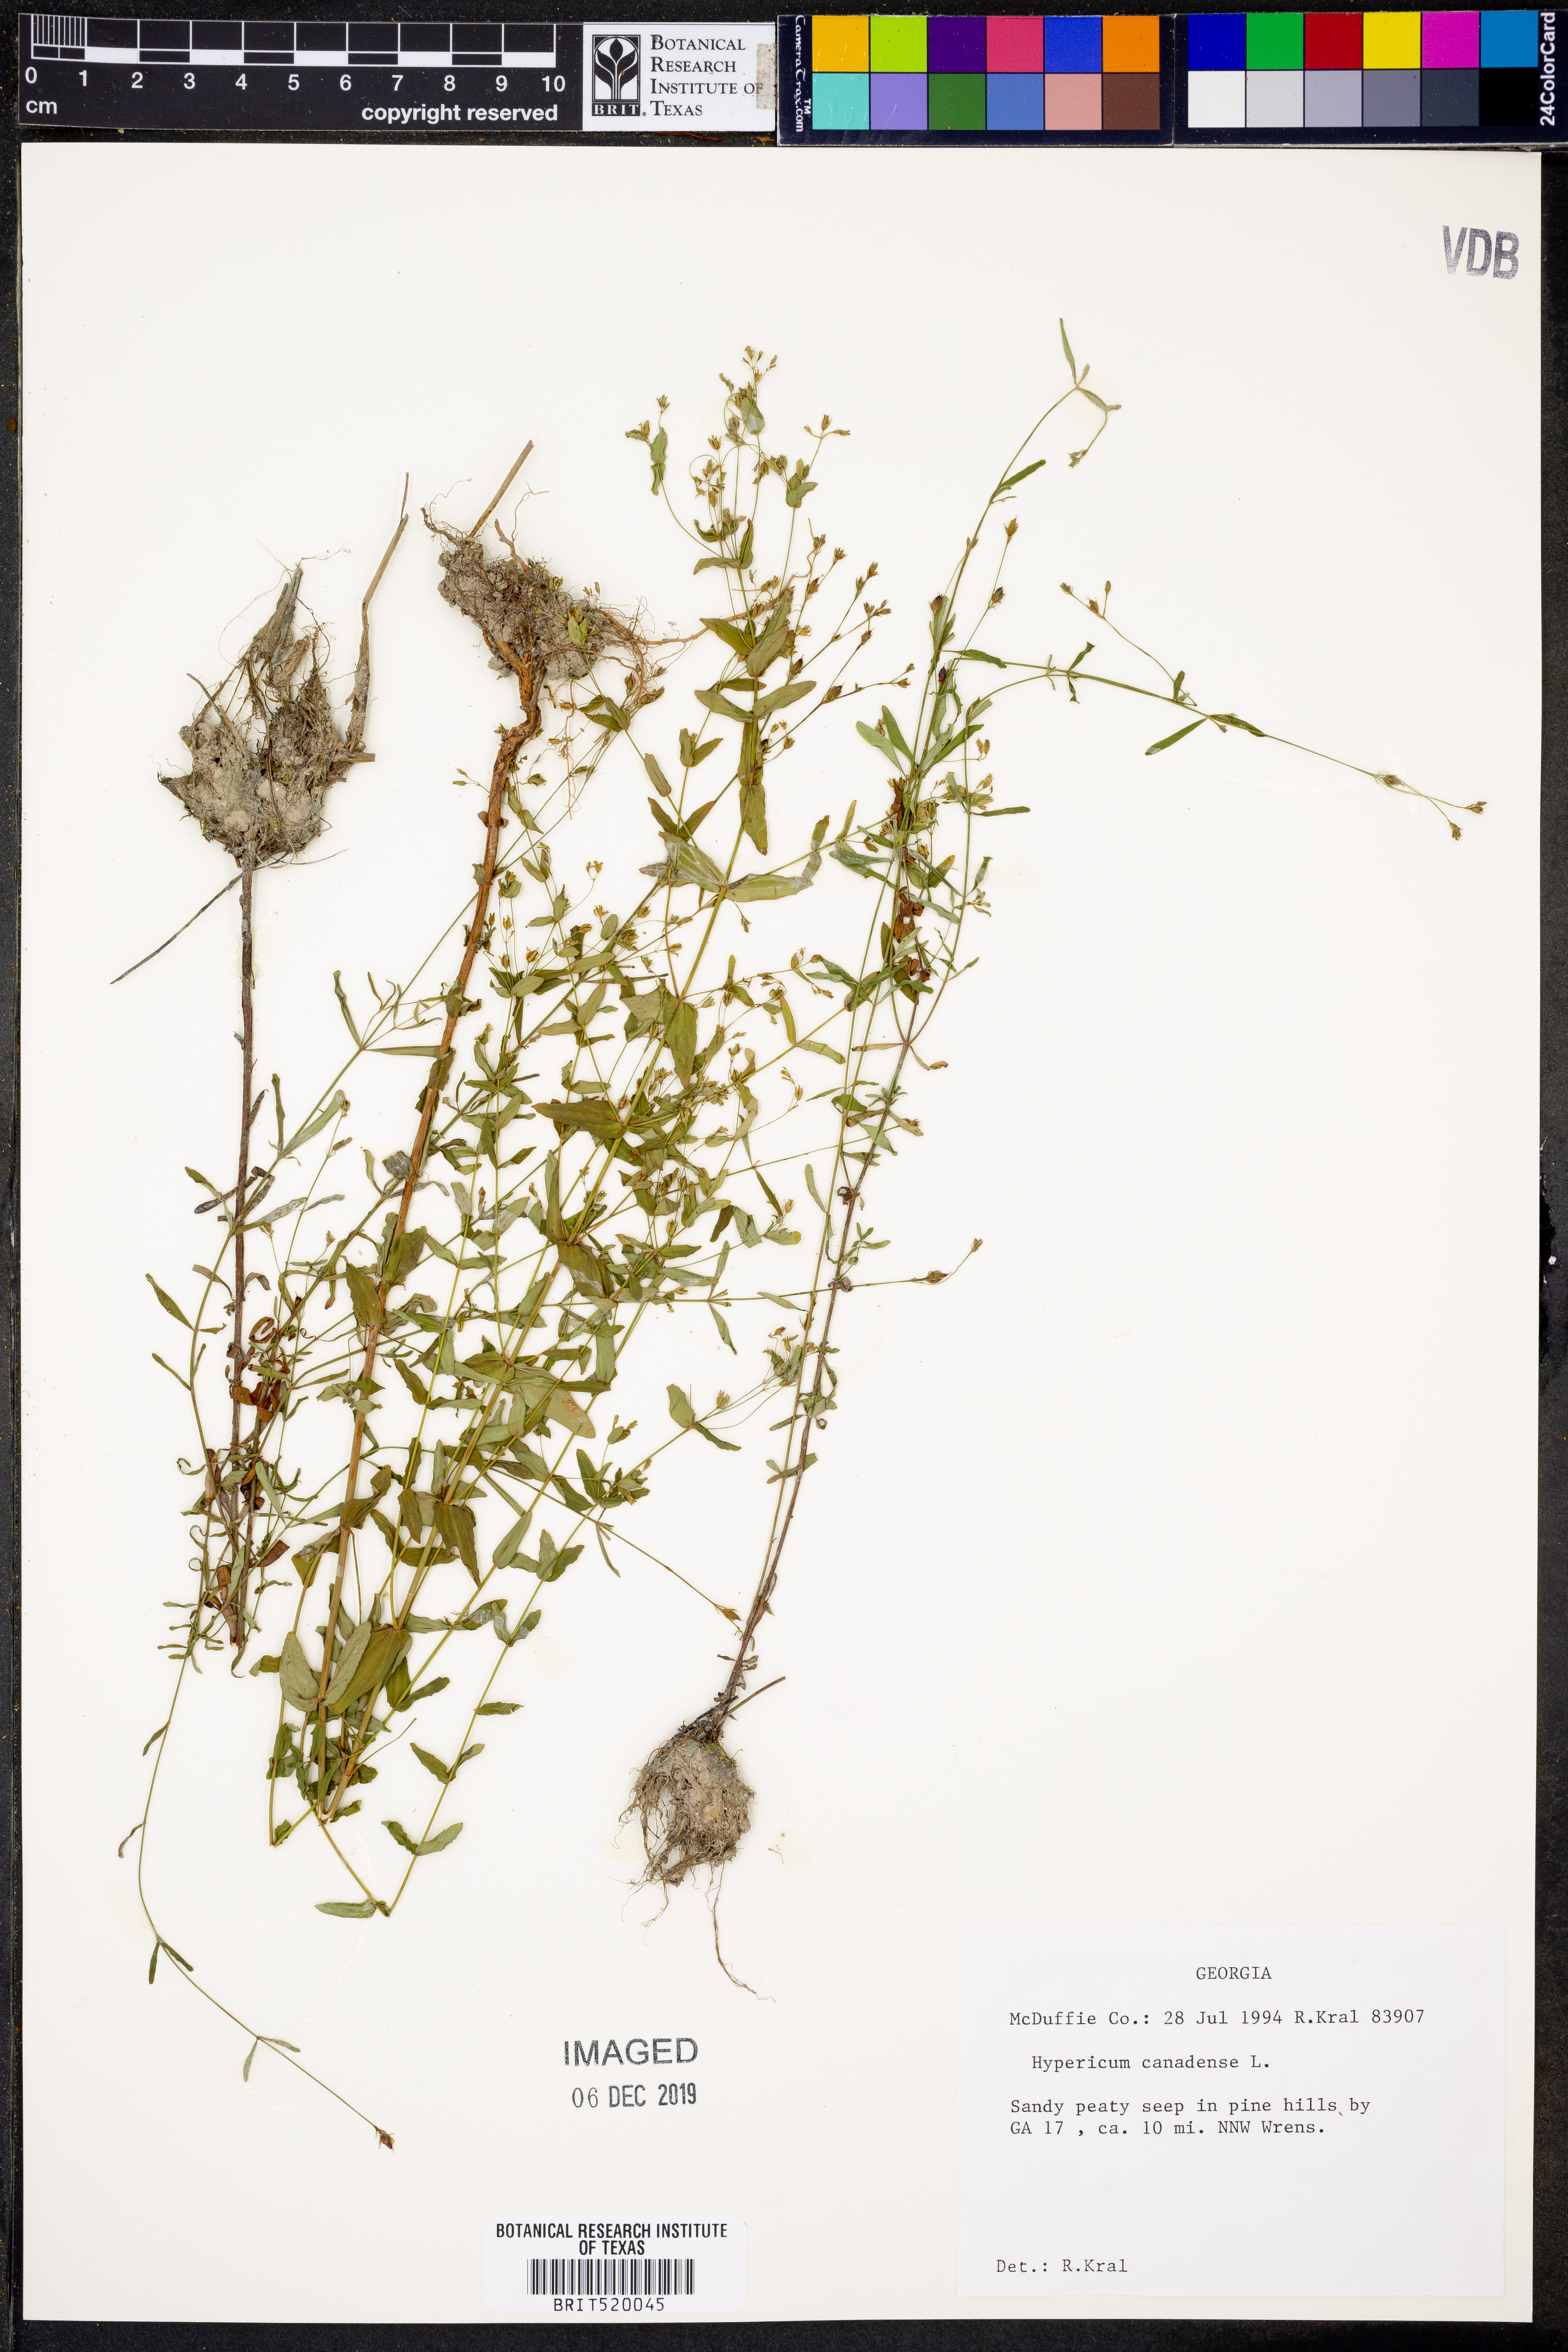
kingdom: Plantae
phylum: Tracheophyta
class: Magnoliopsida
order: Malpighiales
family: Hypericaceae
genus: Hypericum
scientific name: Hypericum canadense
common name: Irish st. john's-wort
